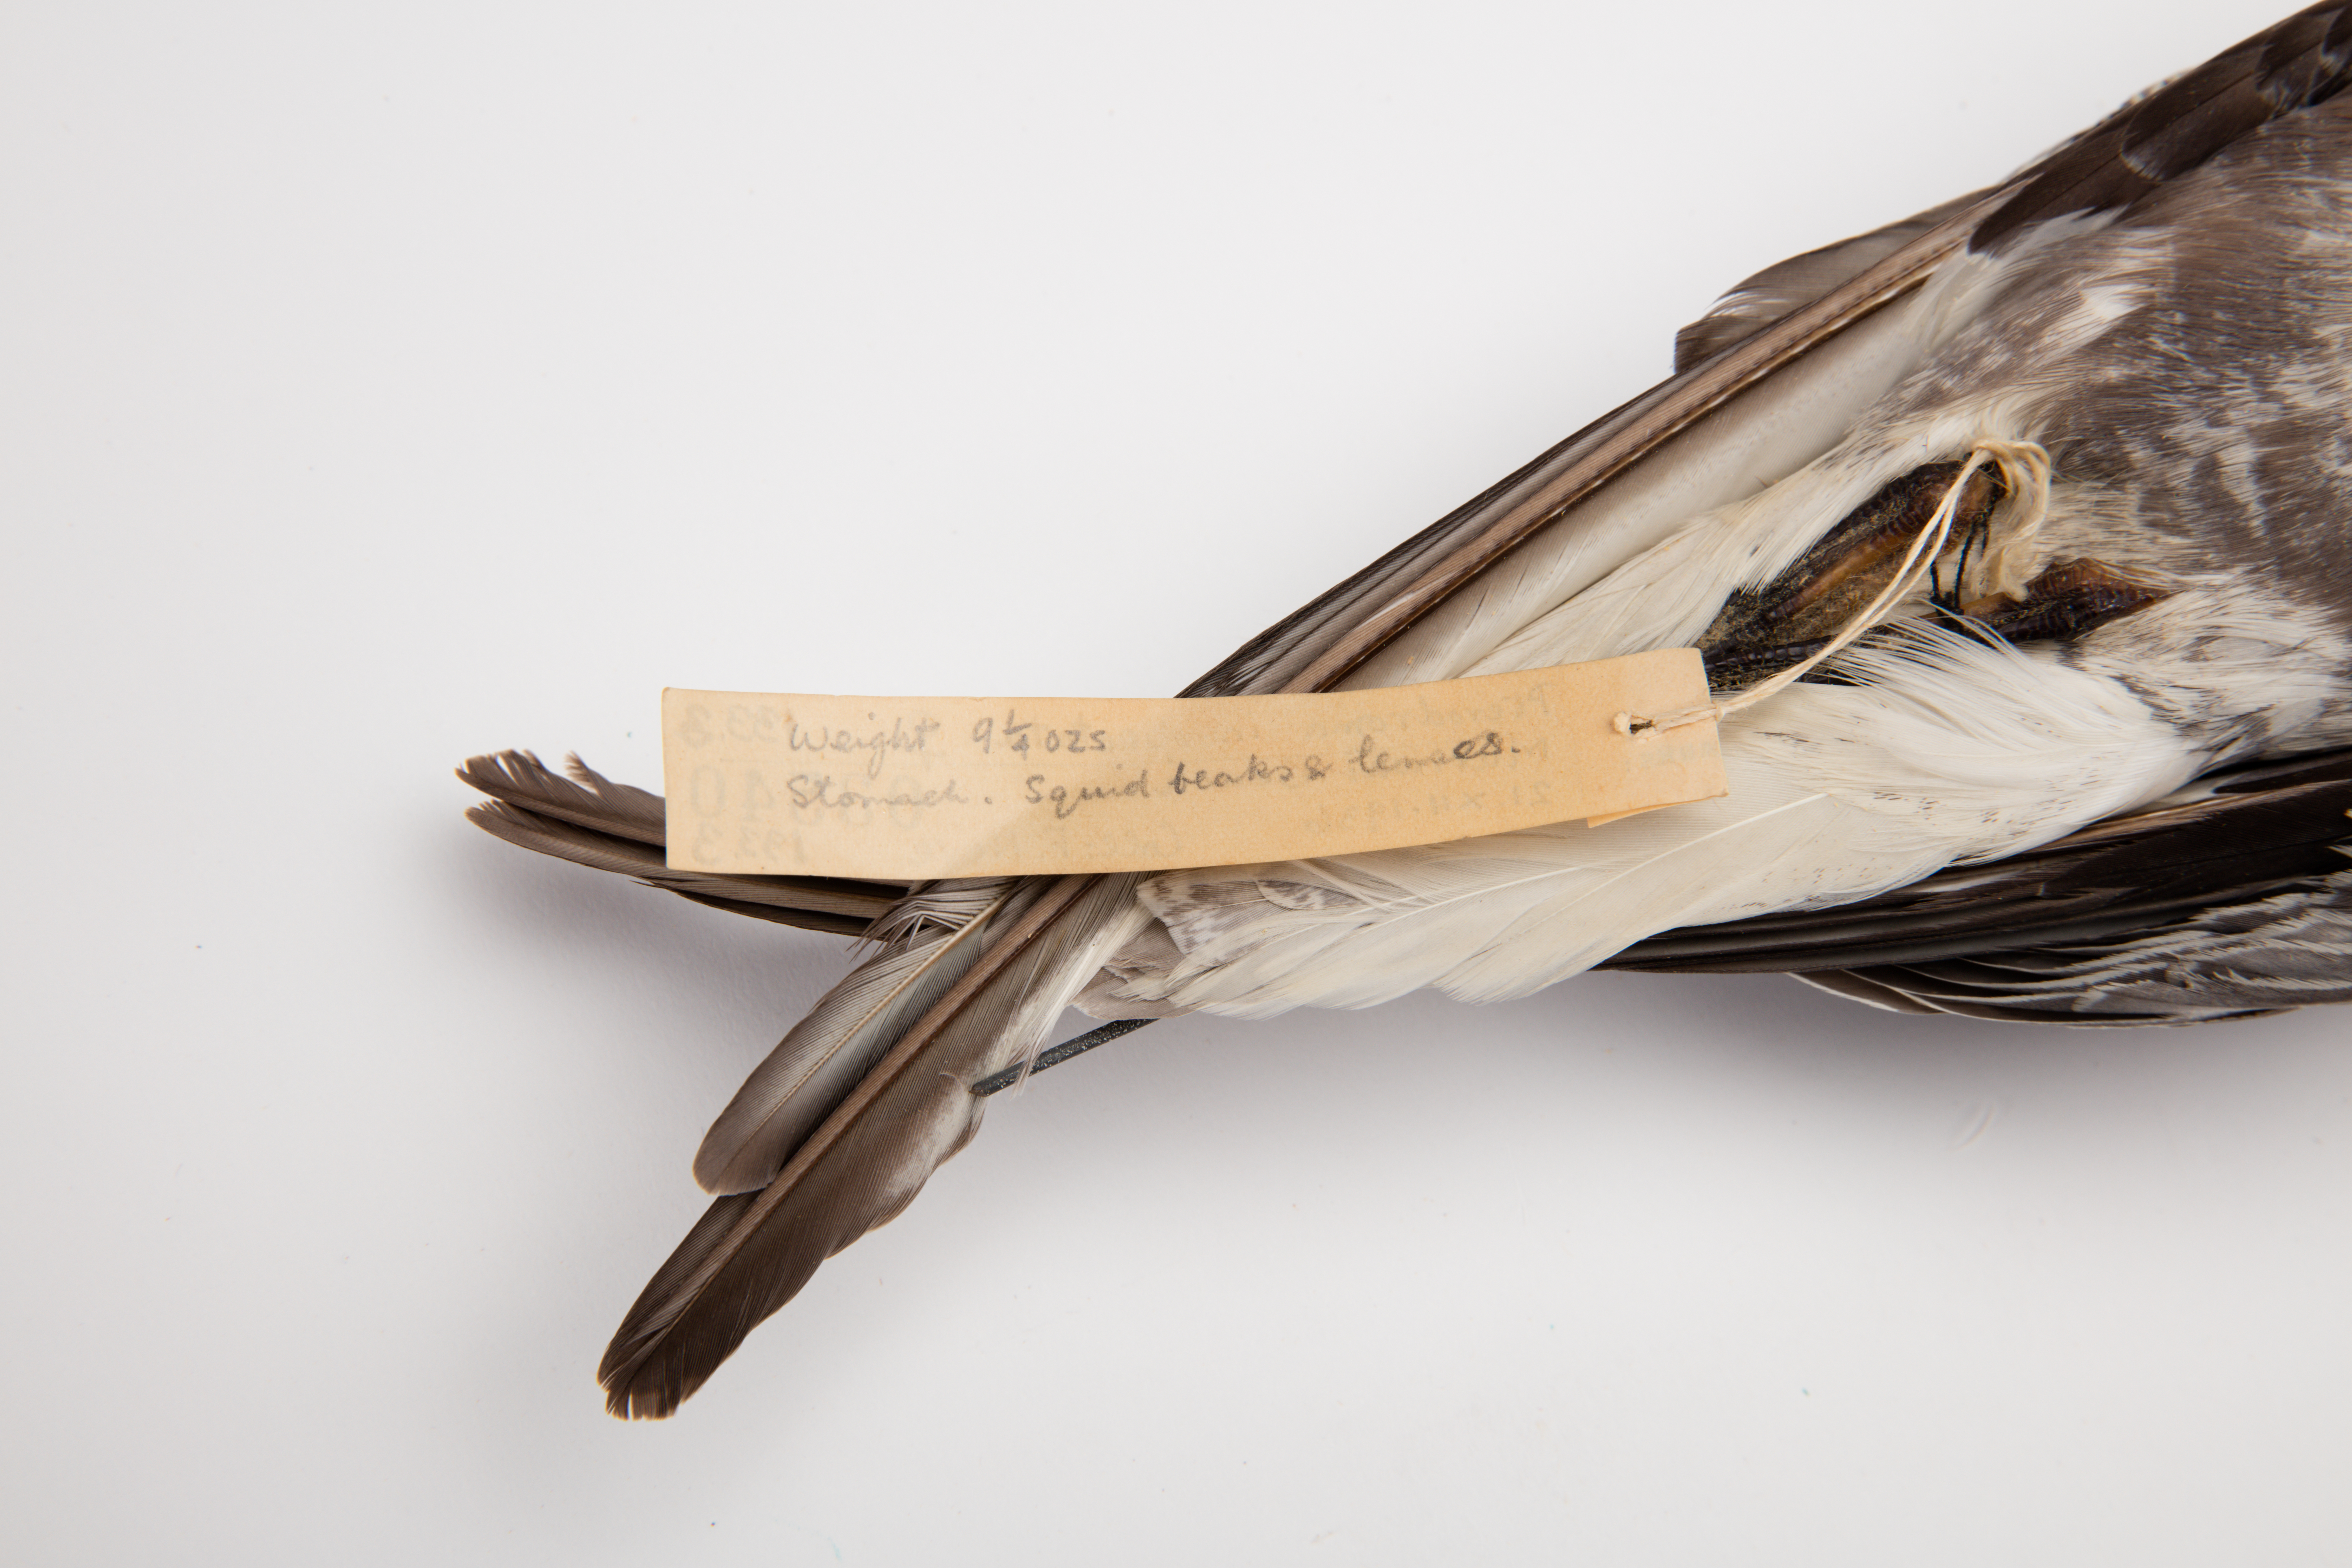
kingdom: Animalia
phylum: Chordata
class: Aves
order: Procellariiformes
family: Procellariidae
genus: Pterodroma
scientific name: Pterodroma inexpectata
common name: Mottled petrel
